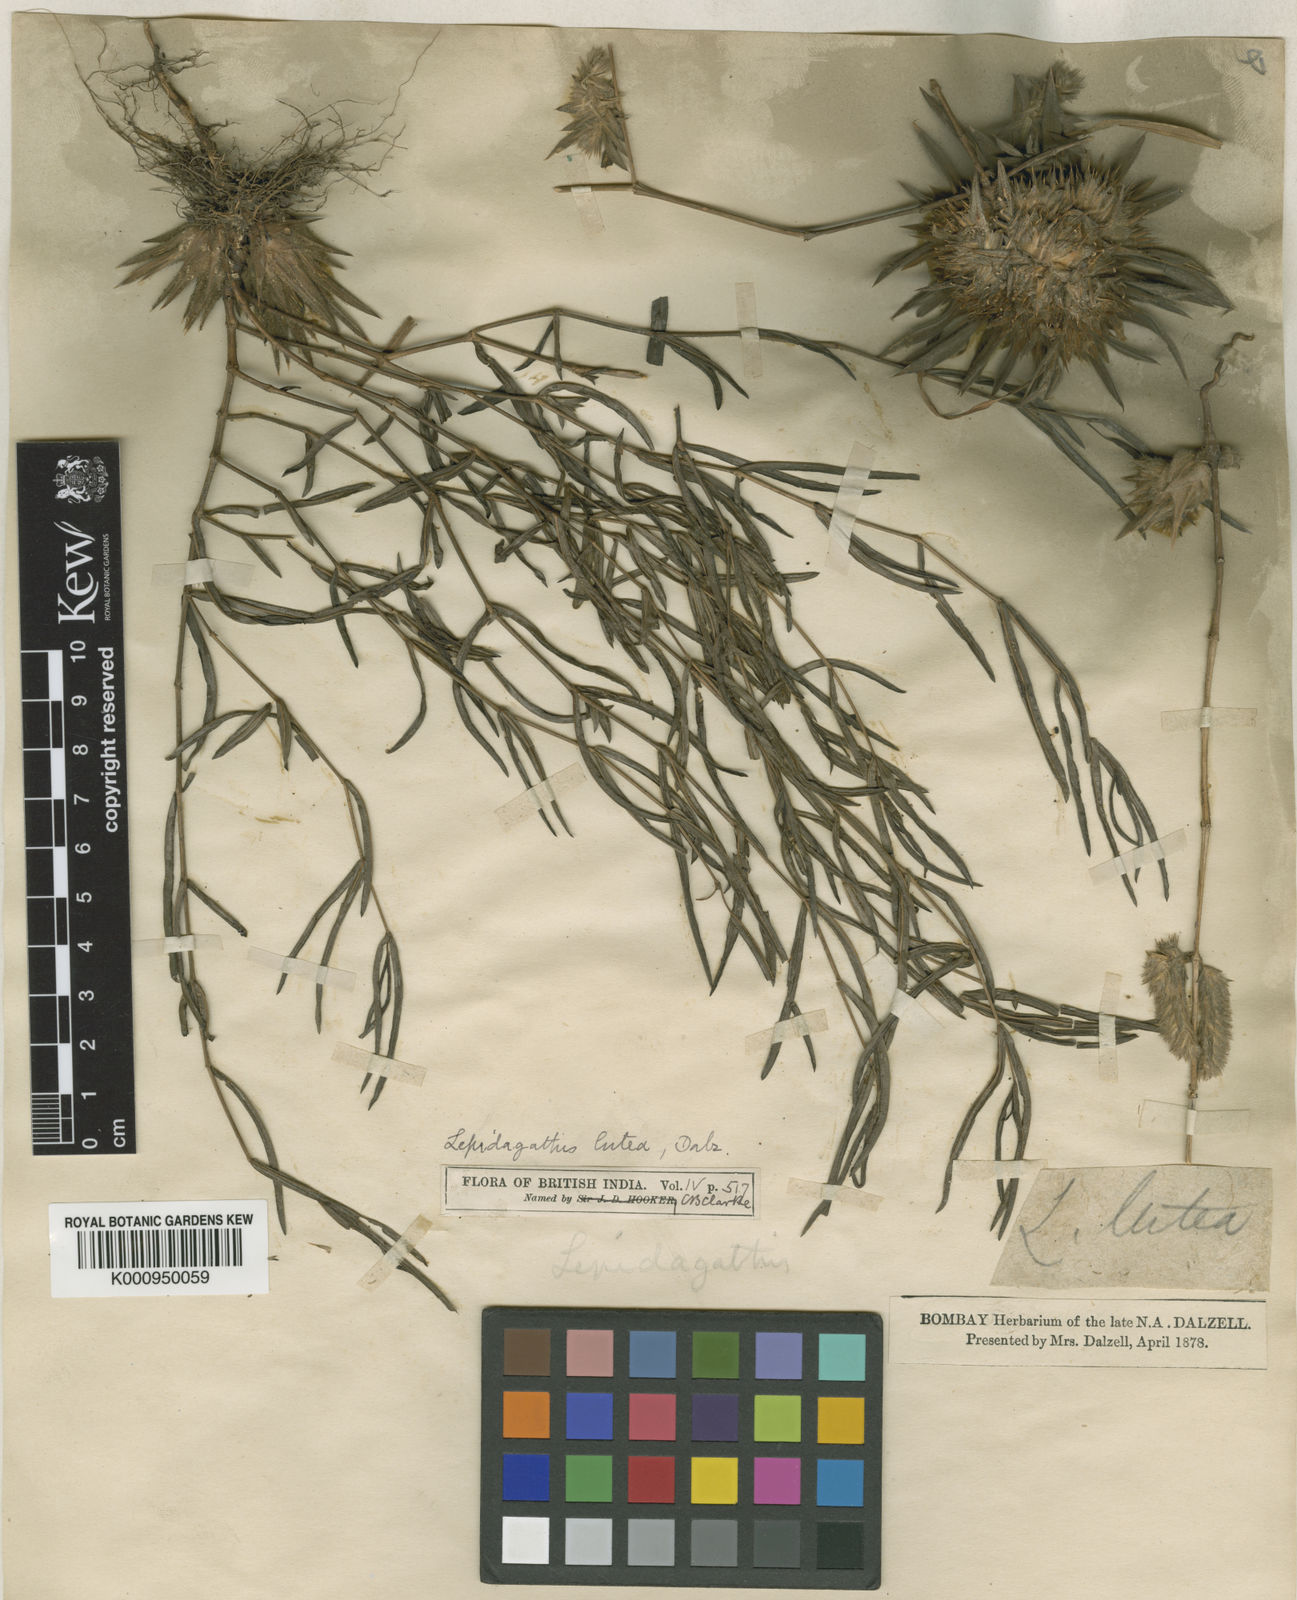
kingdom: Plantae
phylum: Tracheophyta
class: Magnoliopsida
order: Lamiales
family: Acanthaceae
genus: Lepidagathis
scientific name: Lepidagathis lutea
